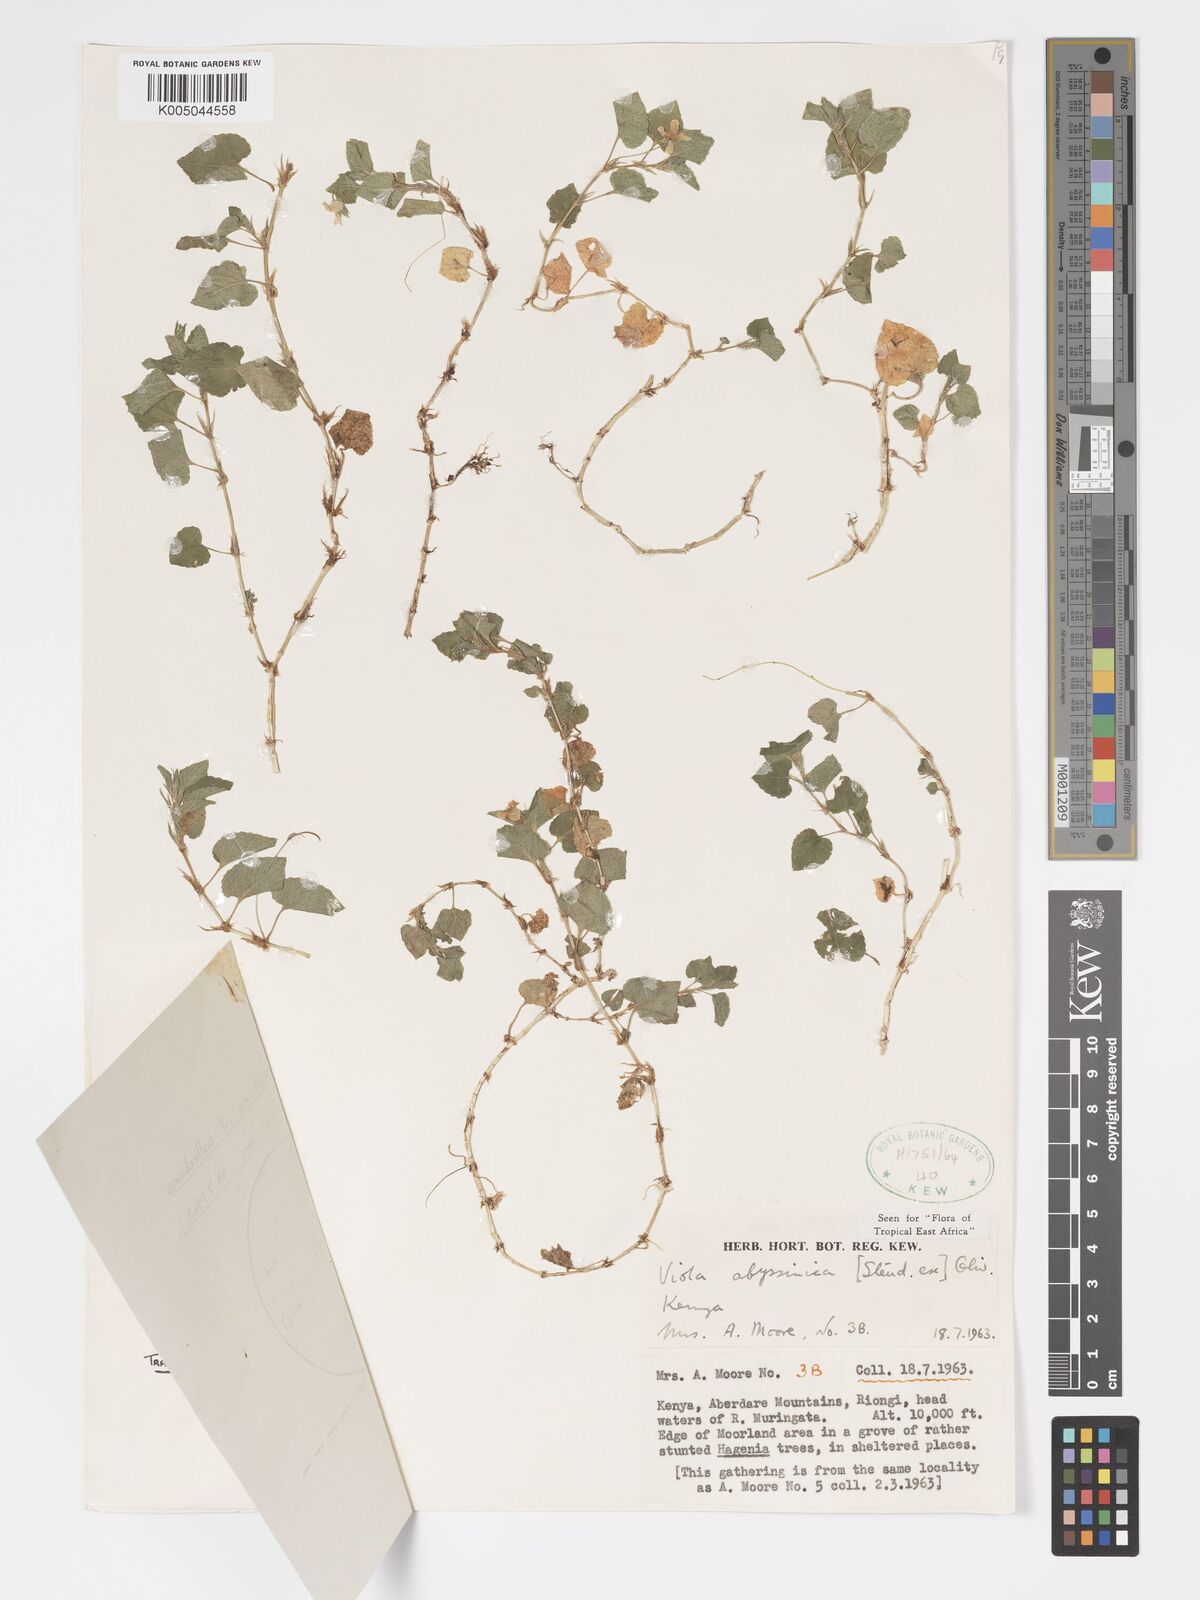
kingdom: Plantae
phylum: Tracheophyta
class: Magnoliopsida
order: Malpighiales
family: Violaceae
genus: Viola
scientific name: Viola abyssinica
